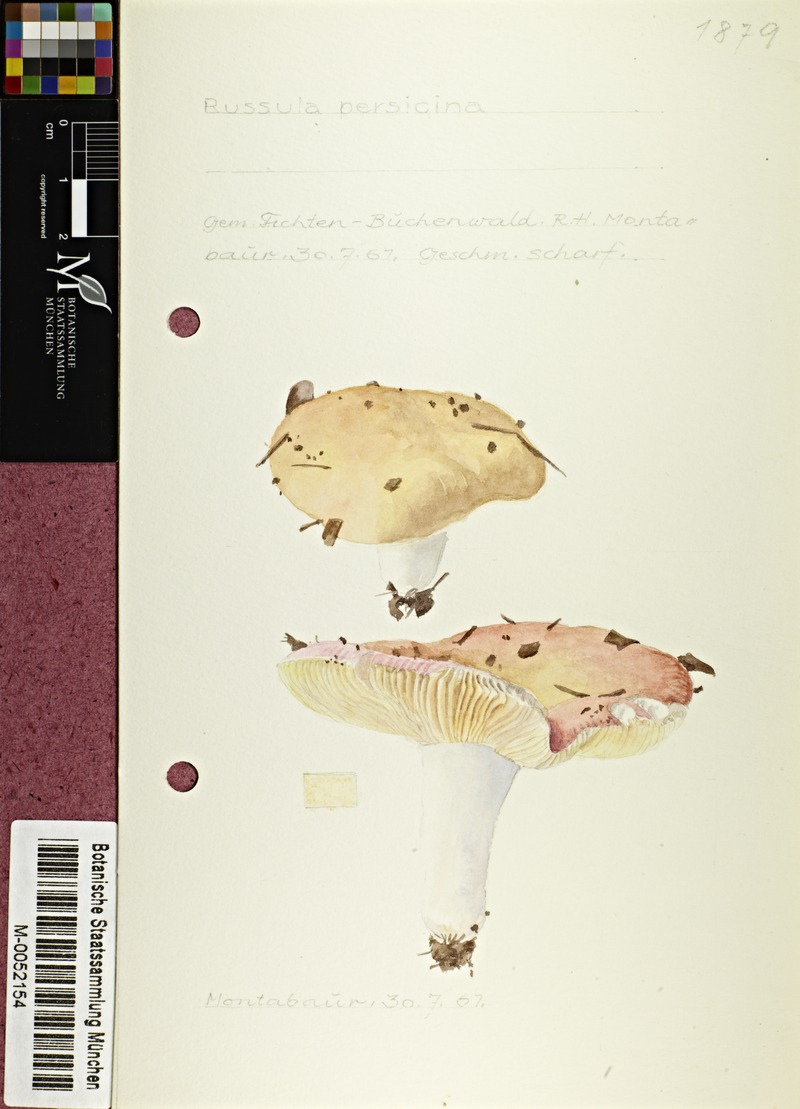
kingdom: Fungi
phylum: Basidiomycota
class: Agaricomycetes
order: Russulales
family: Russulaceae
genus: Russula
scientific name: Russula persicina
